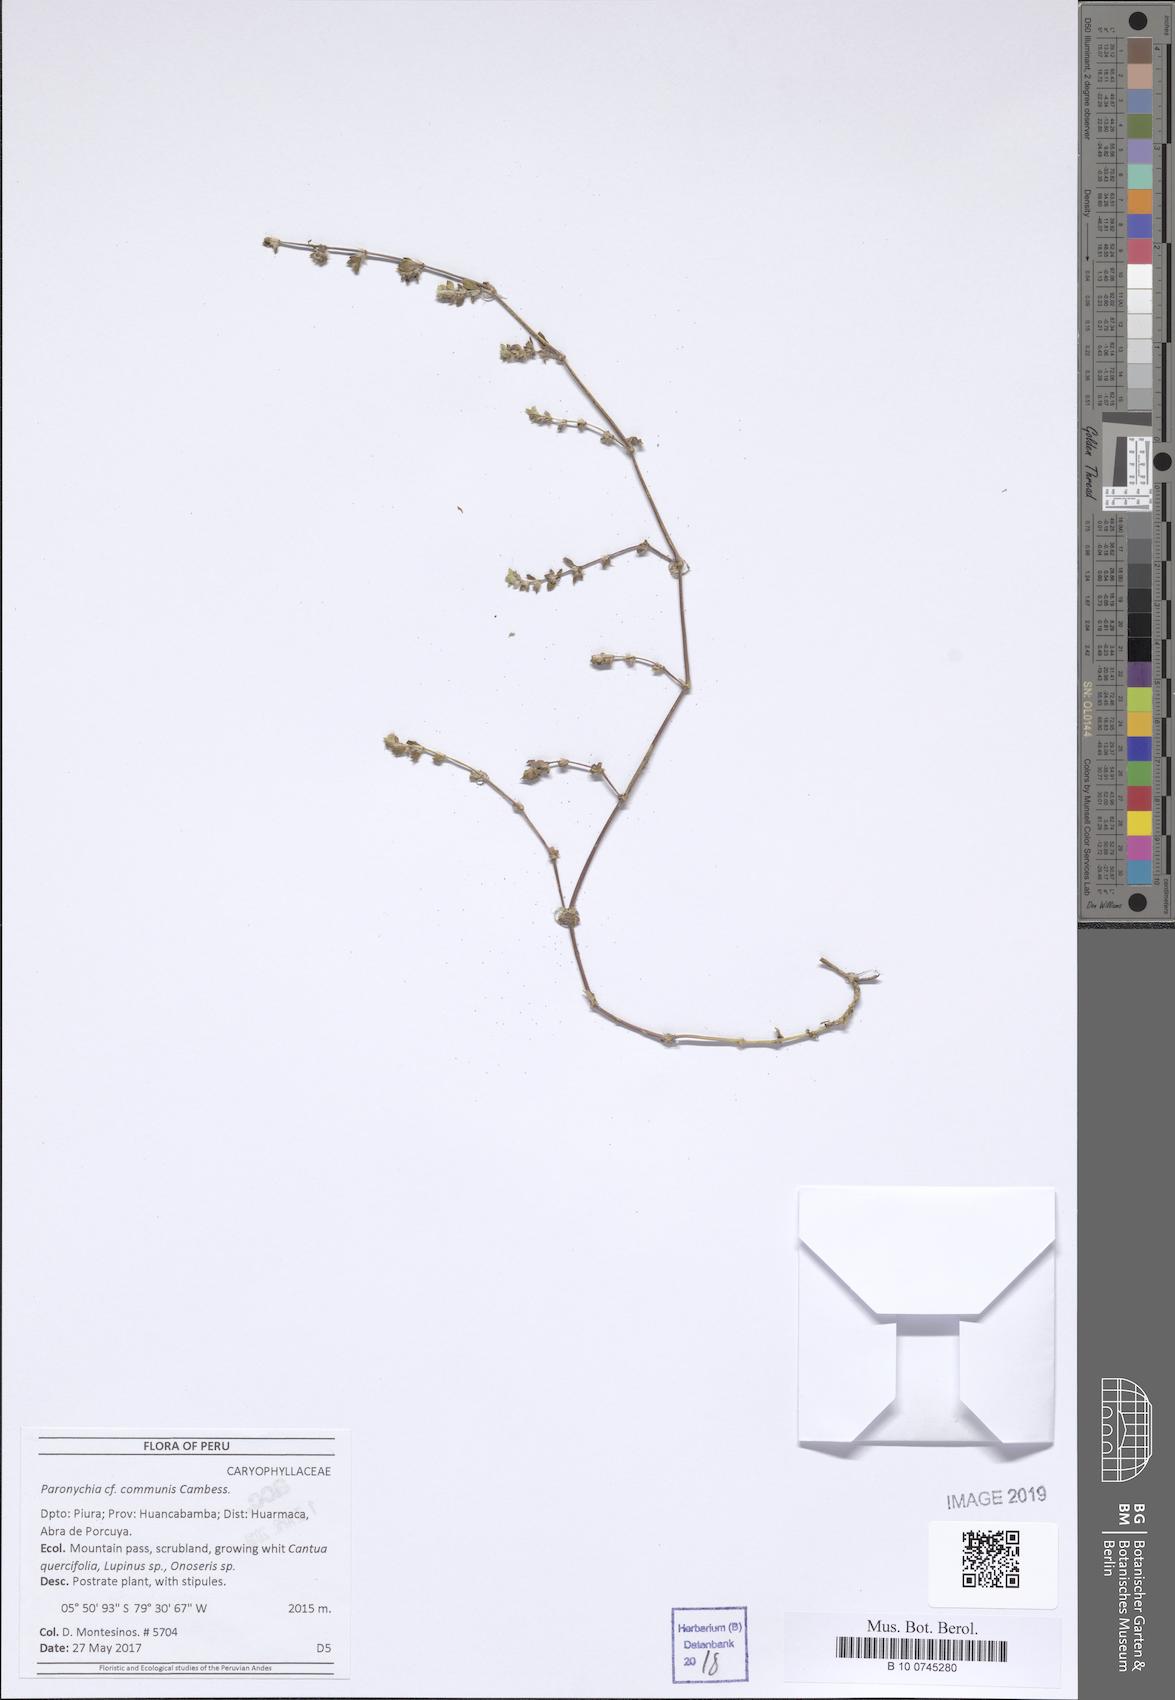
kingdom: Plantae
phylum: Tracheophyta
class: Magnoliopsida
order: Caryophyllales
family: Caryophyllaceae
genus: Paronychia
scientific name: Paronychia communis
